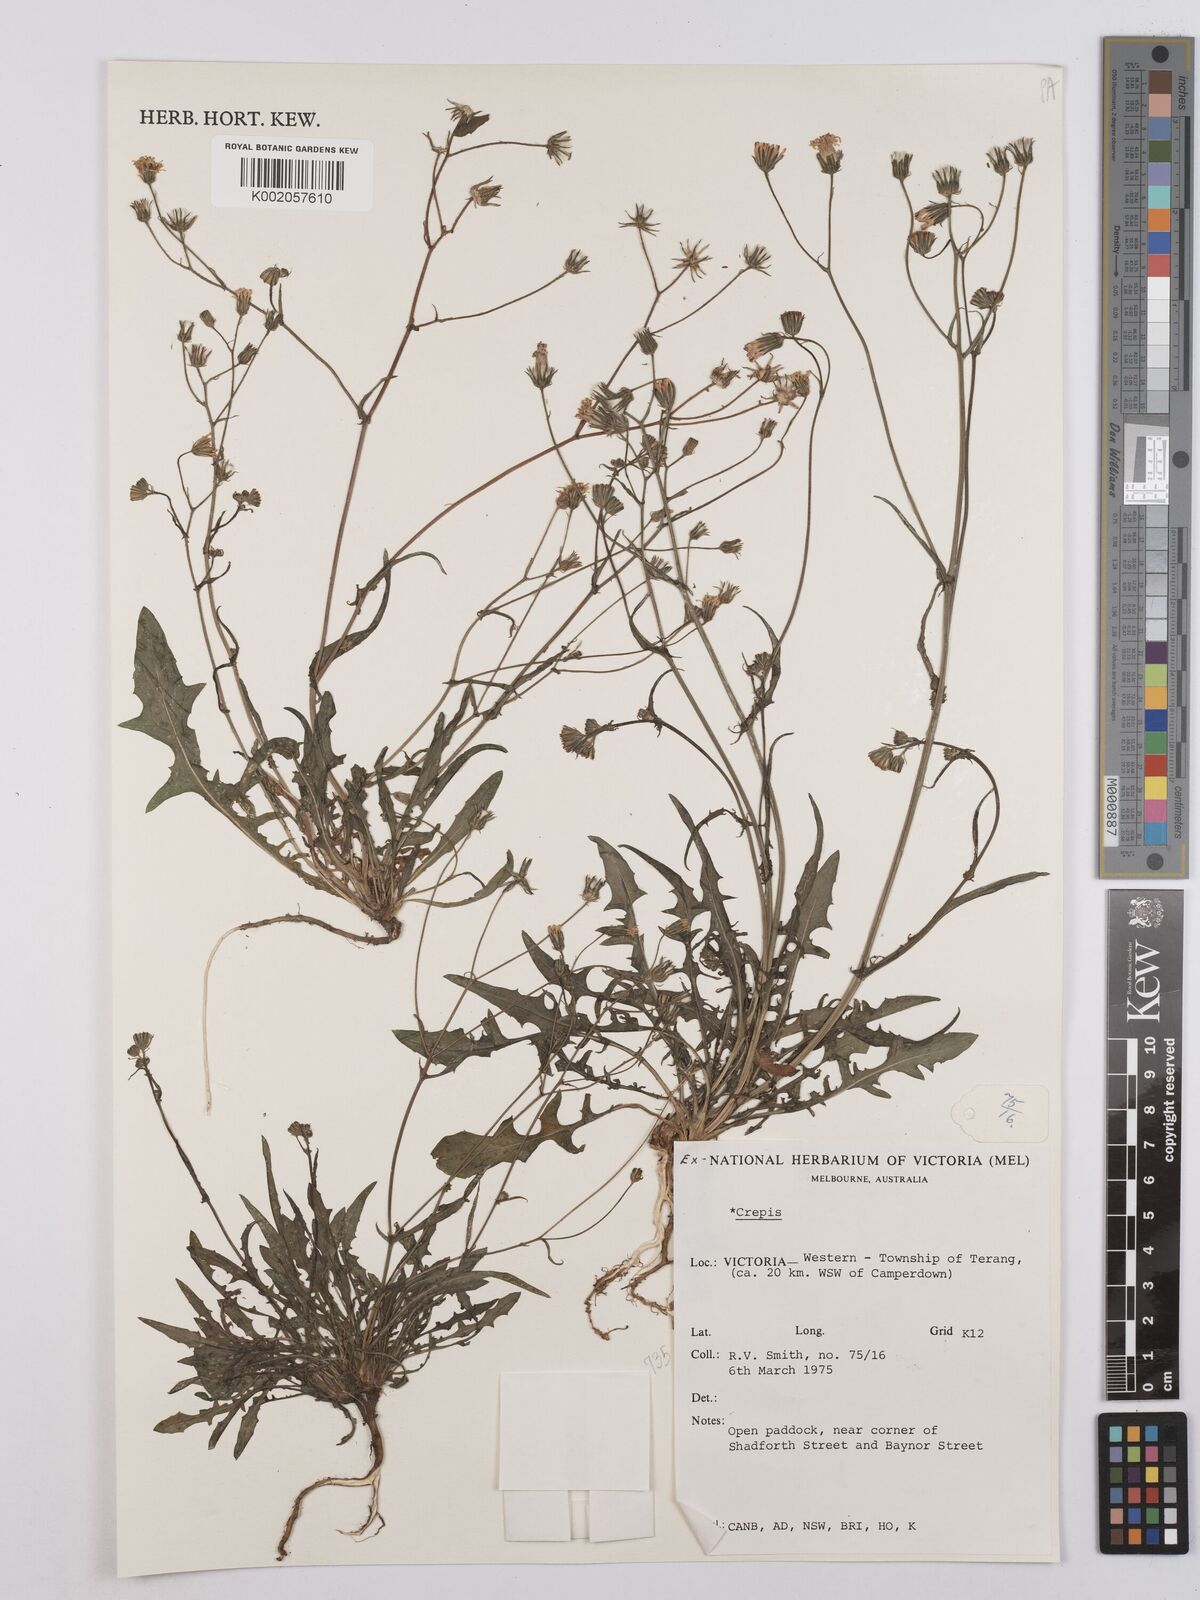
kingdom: Plantae
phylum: Tracheophyta
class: Magnoliopsida
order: Asterales
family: Asteraceae
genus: Crepis
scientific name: Crepis
